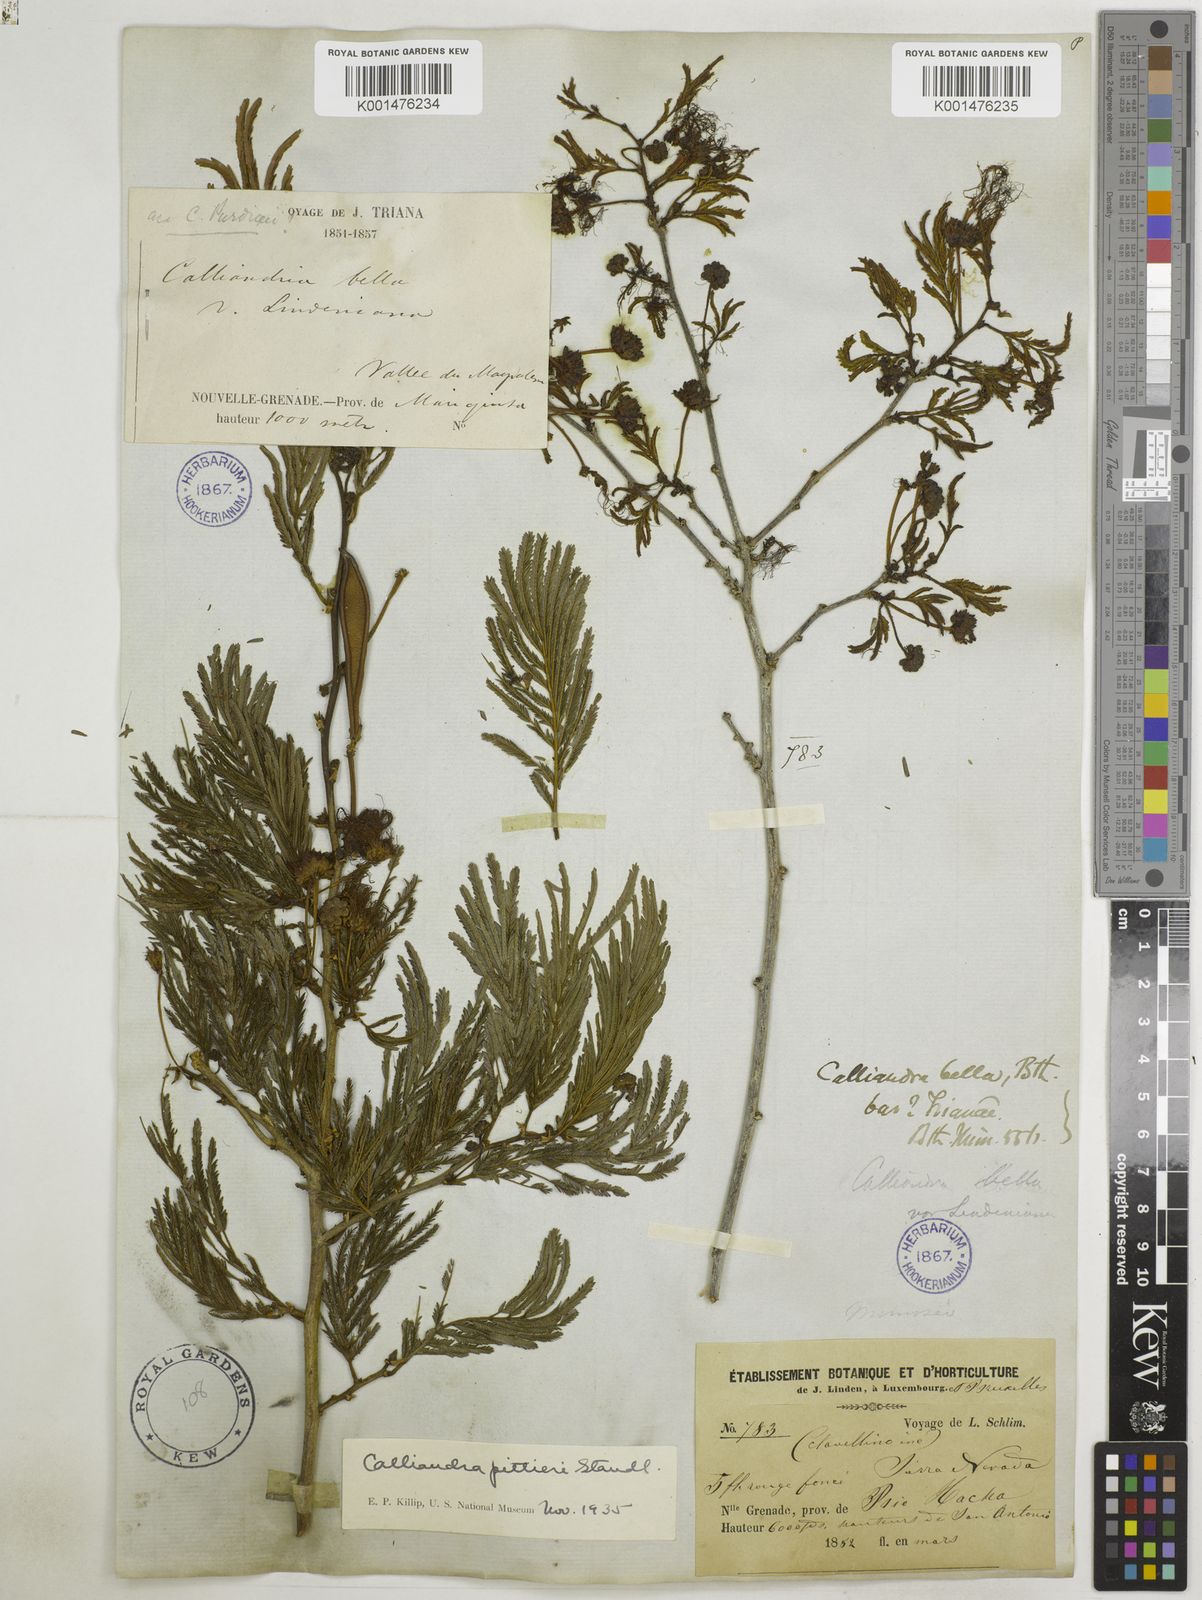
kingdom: Plantae
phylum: Tracheophyta
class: Magnoliopsida
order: Fabales
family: Fabaceae
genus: Calliandra
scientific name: Calliandra pittieri
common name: Carbonero de avenidas
